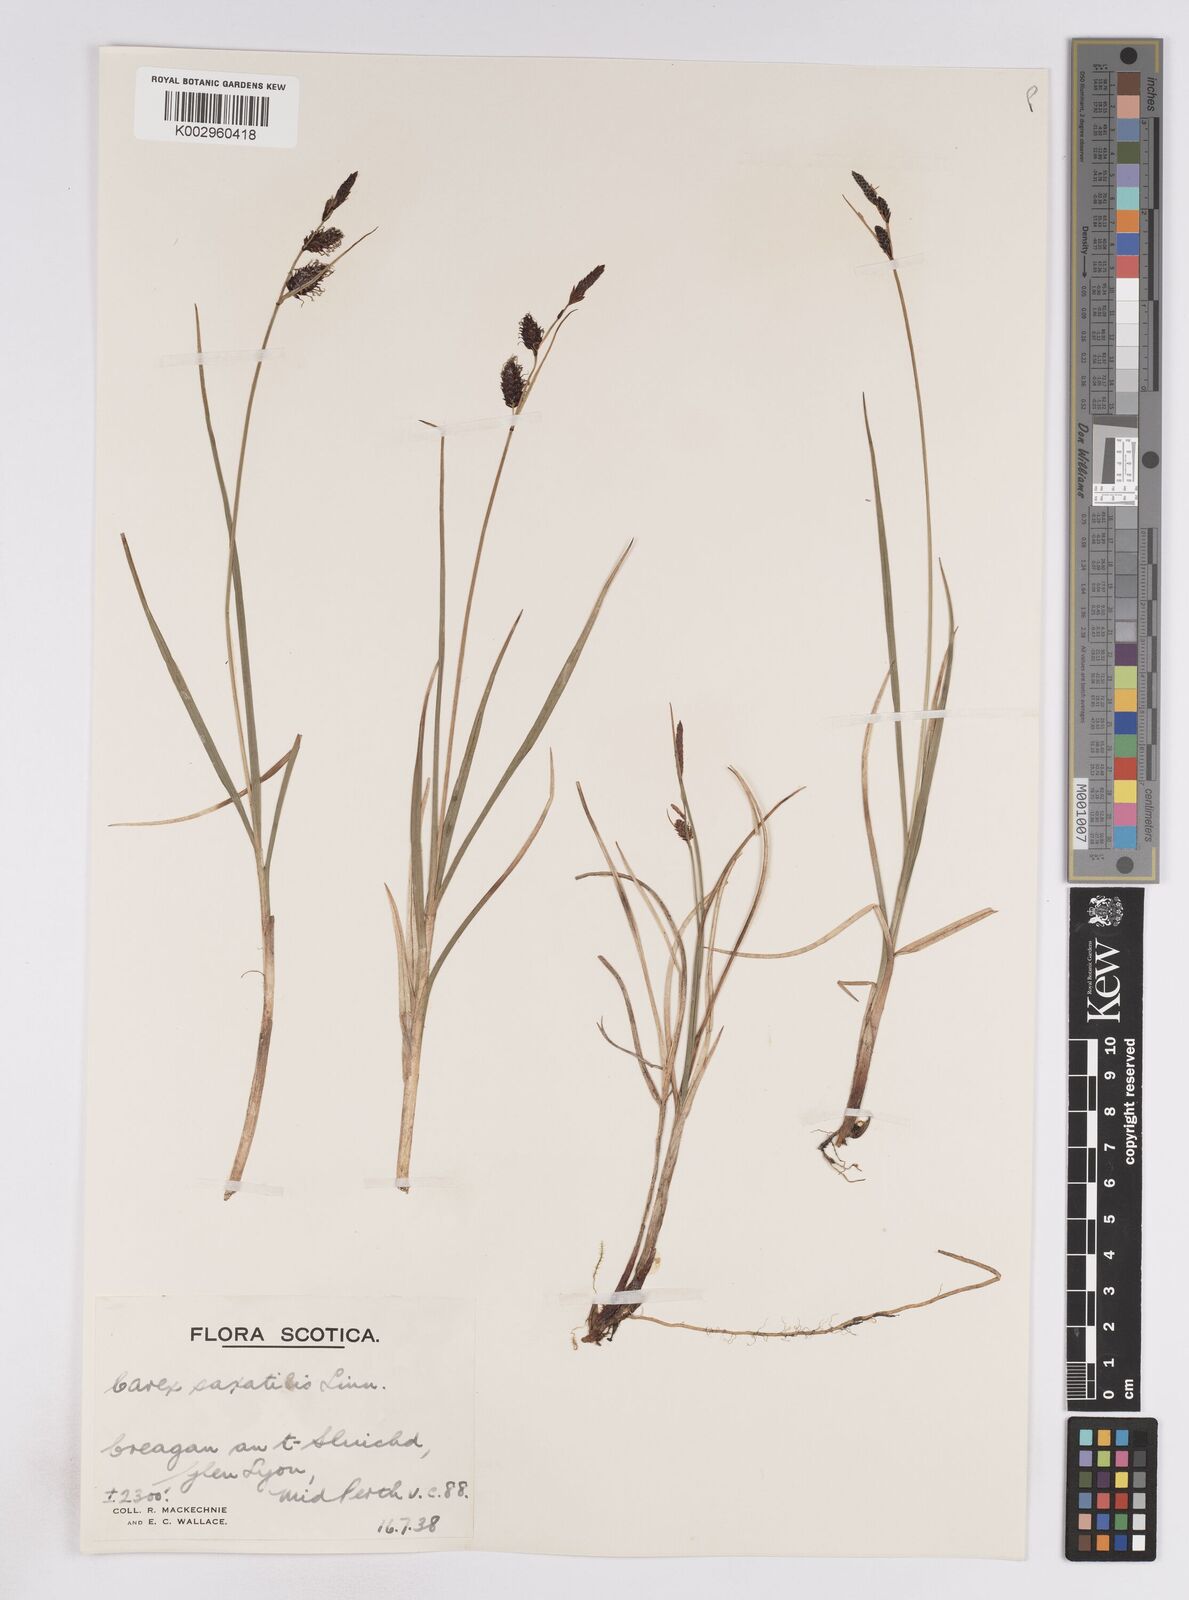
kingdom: Plantae
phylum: Tracheophyta
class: Liliopsida
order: Poales
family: Cyperaceae
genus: Carex
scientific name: Carex saxatilis
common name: Russet sedge
